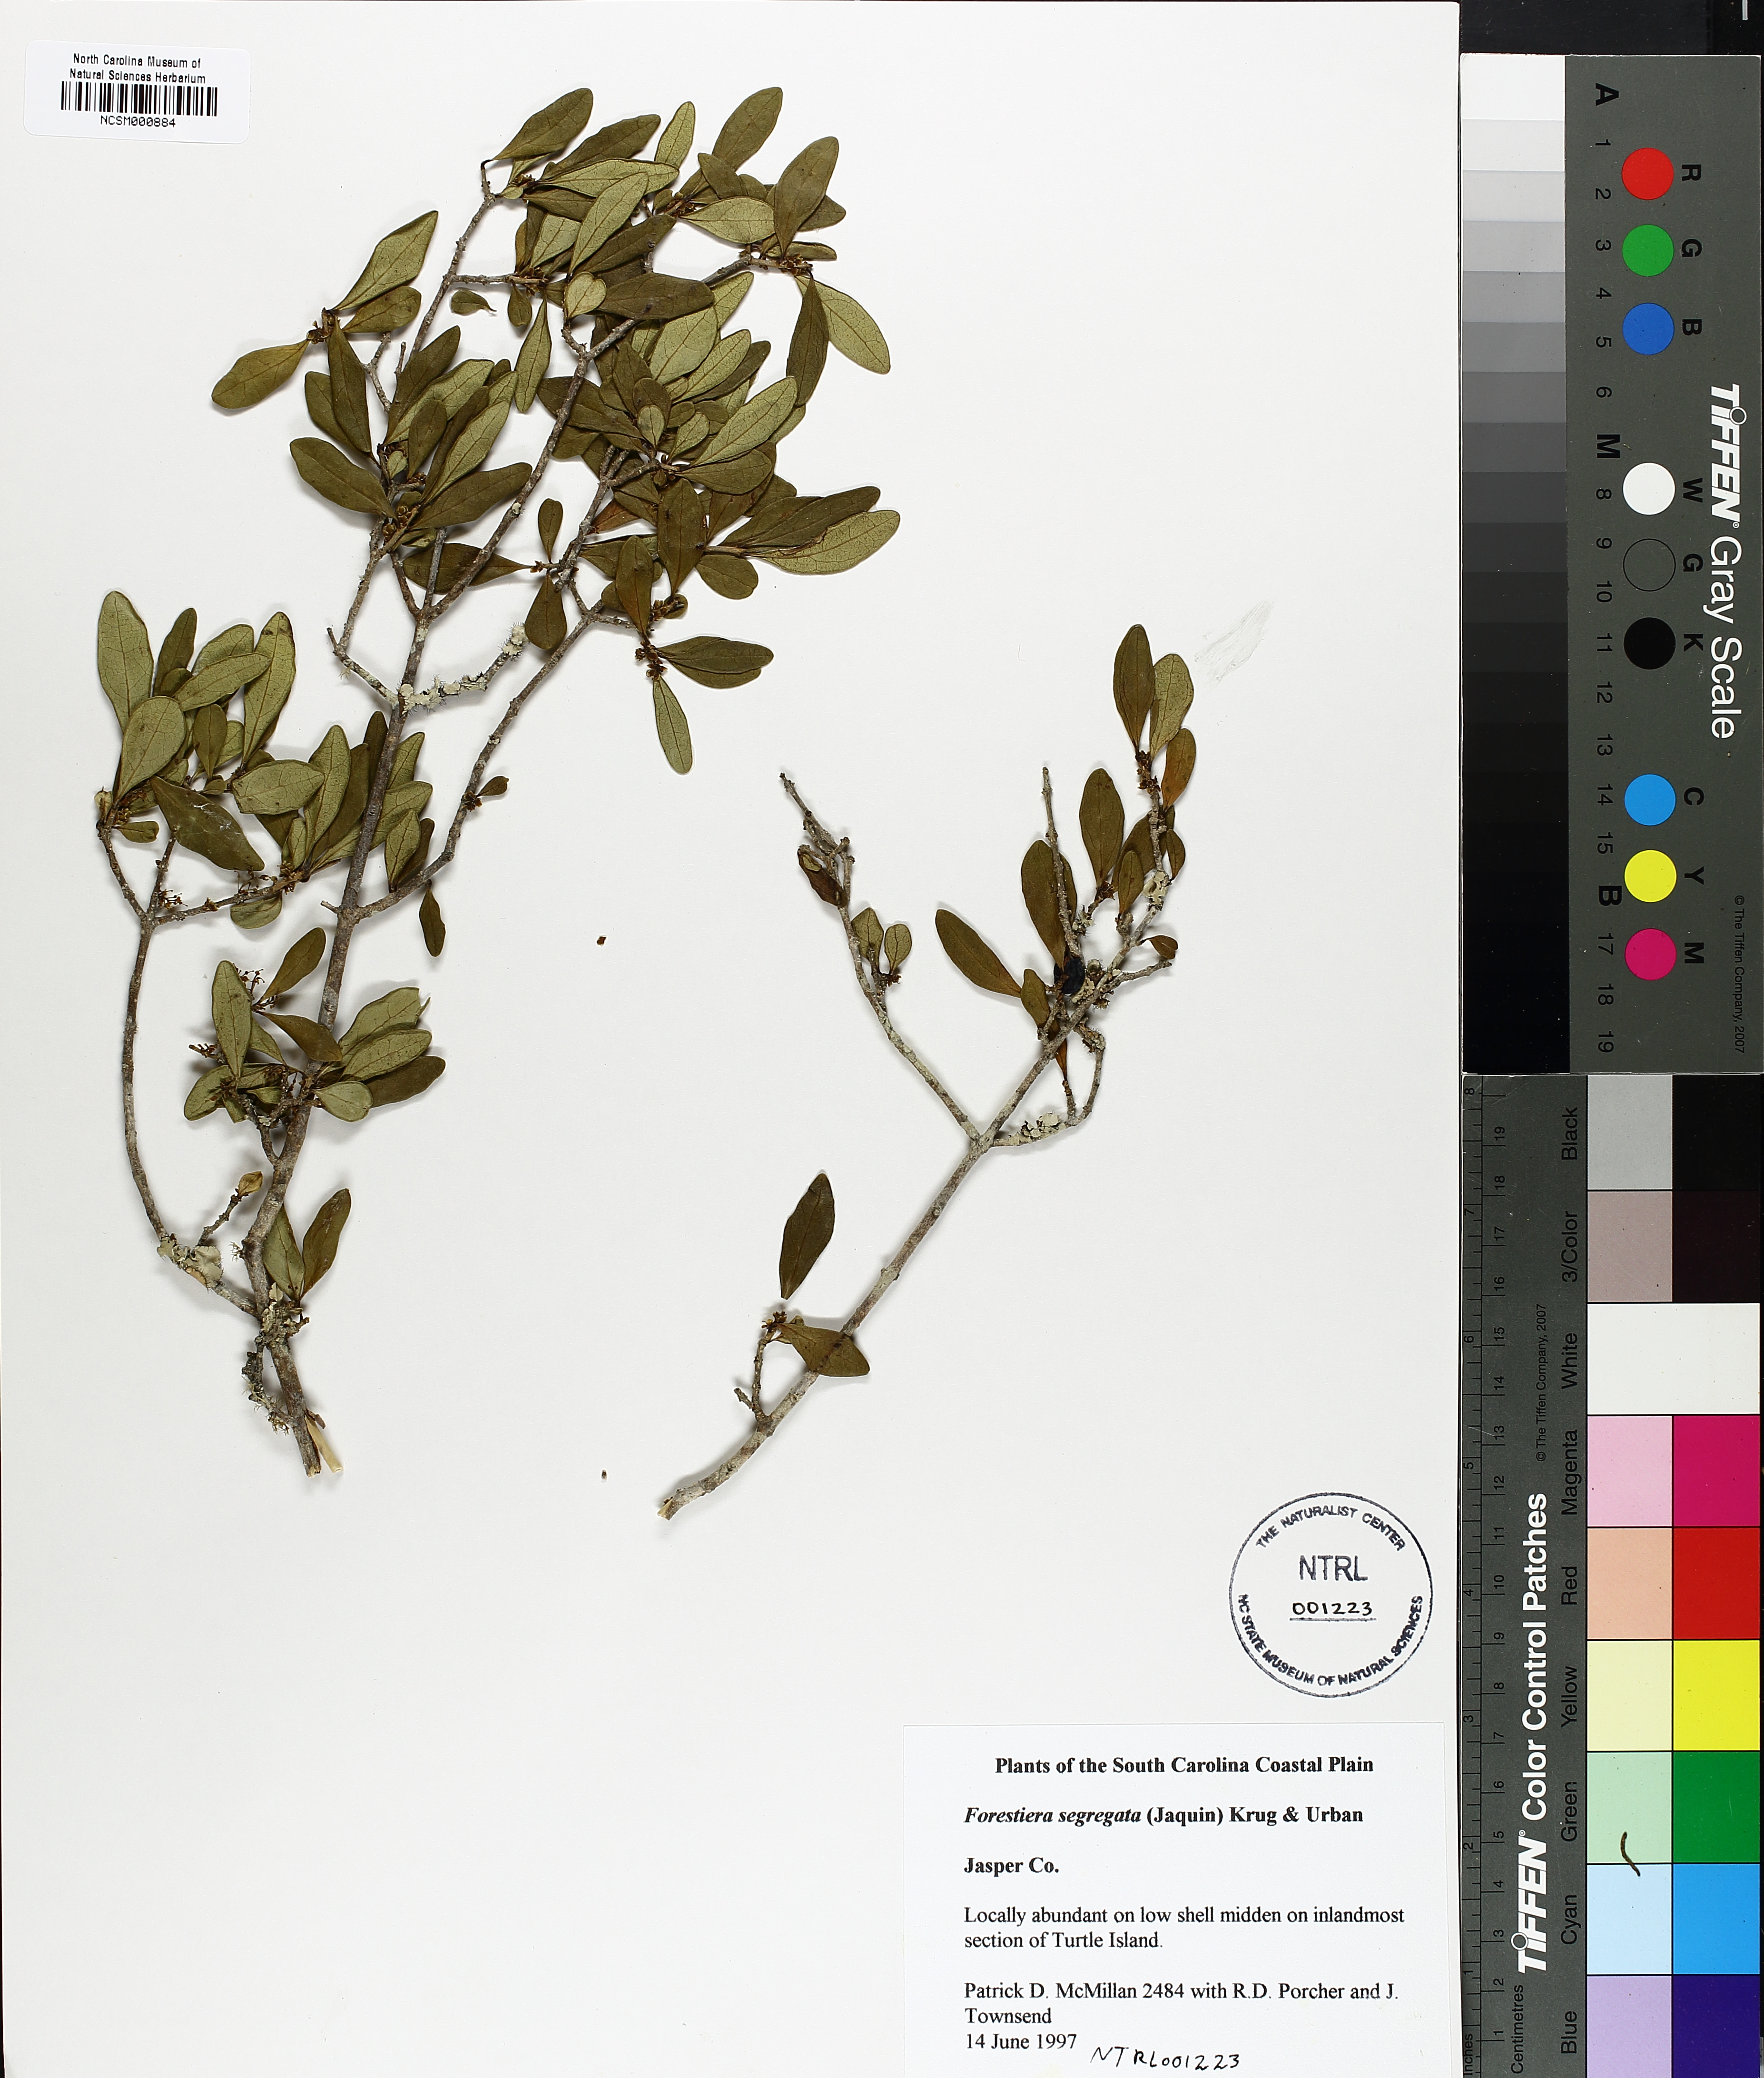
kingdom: Plantae
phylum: Tracheophyta
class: Magnoliopsida
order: Lamiales
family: Oleaceae
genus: Forestiera
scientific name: Forestiera segregata
